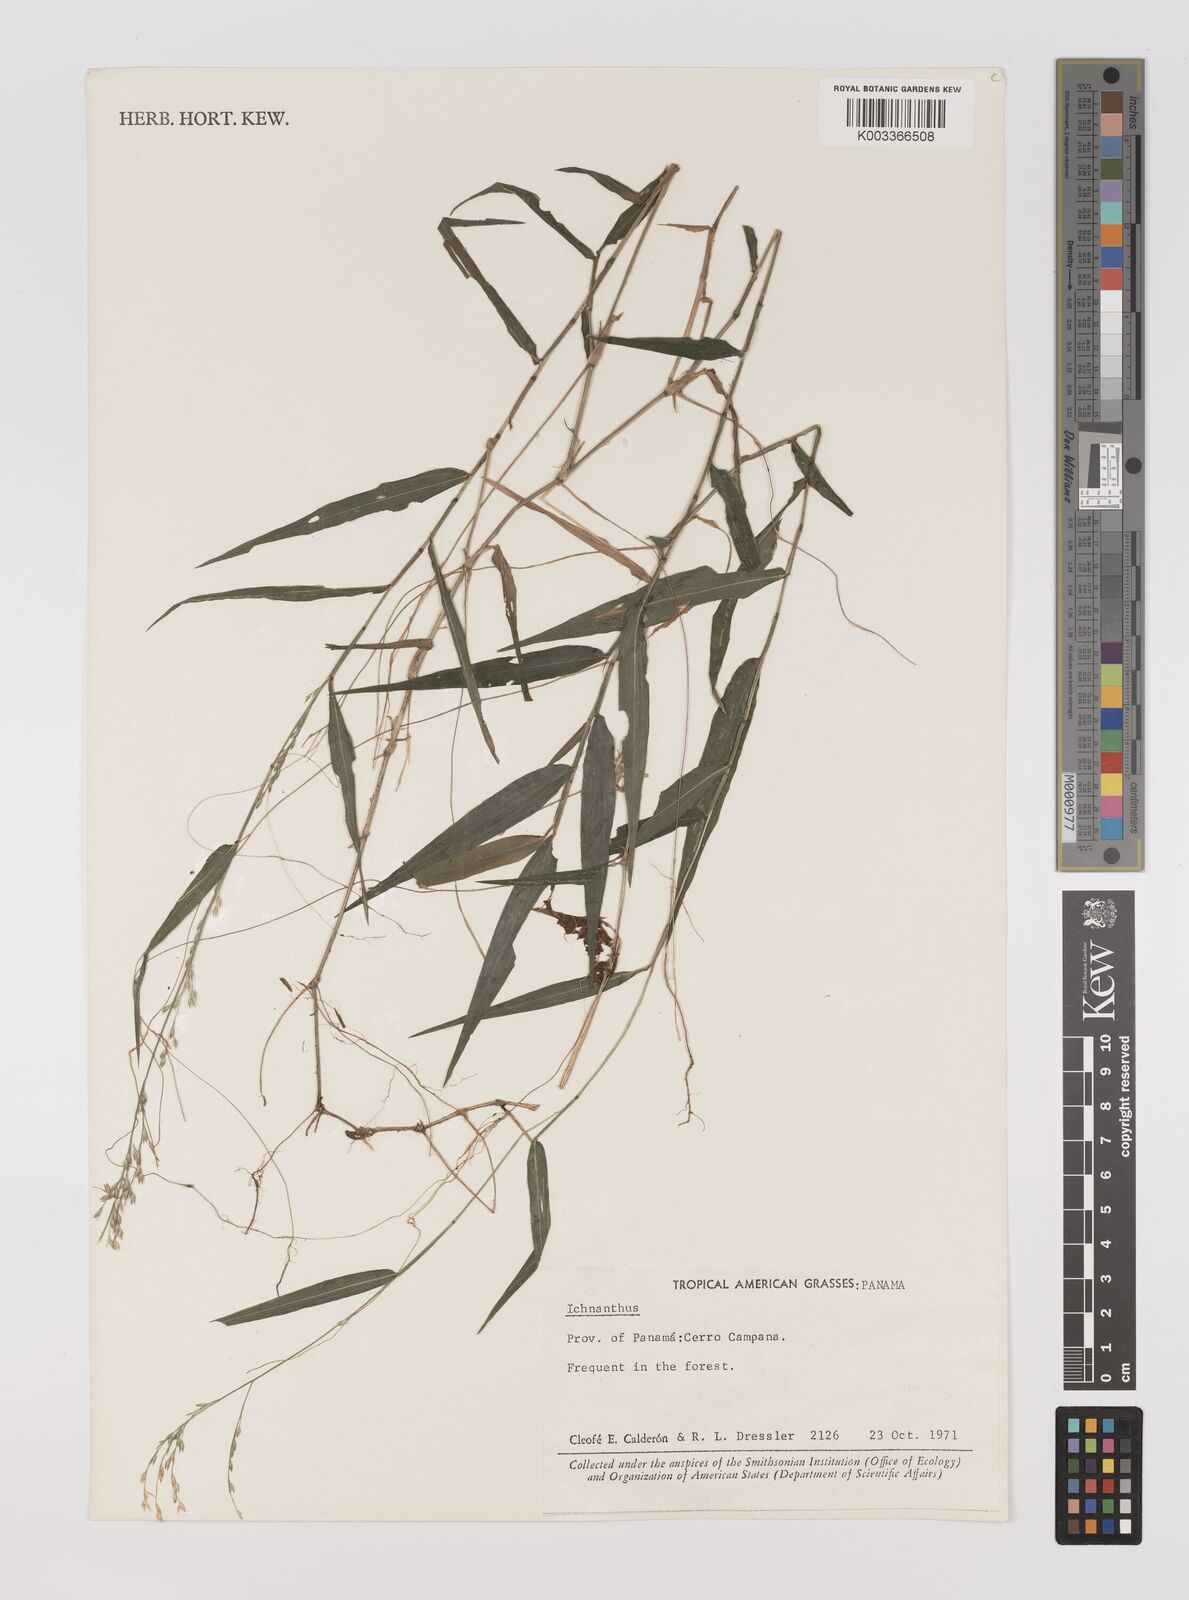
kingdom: Plantae
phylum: Tracheophyta
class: Liliopsida
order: Poales
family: Poaceae
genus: Ichnanthus
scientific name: Ichnanthus
